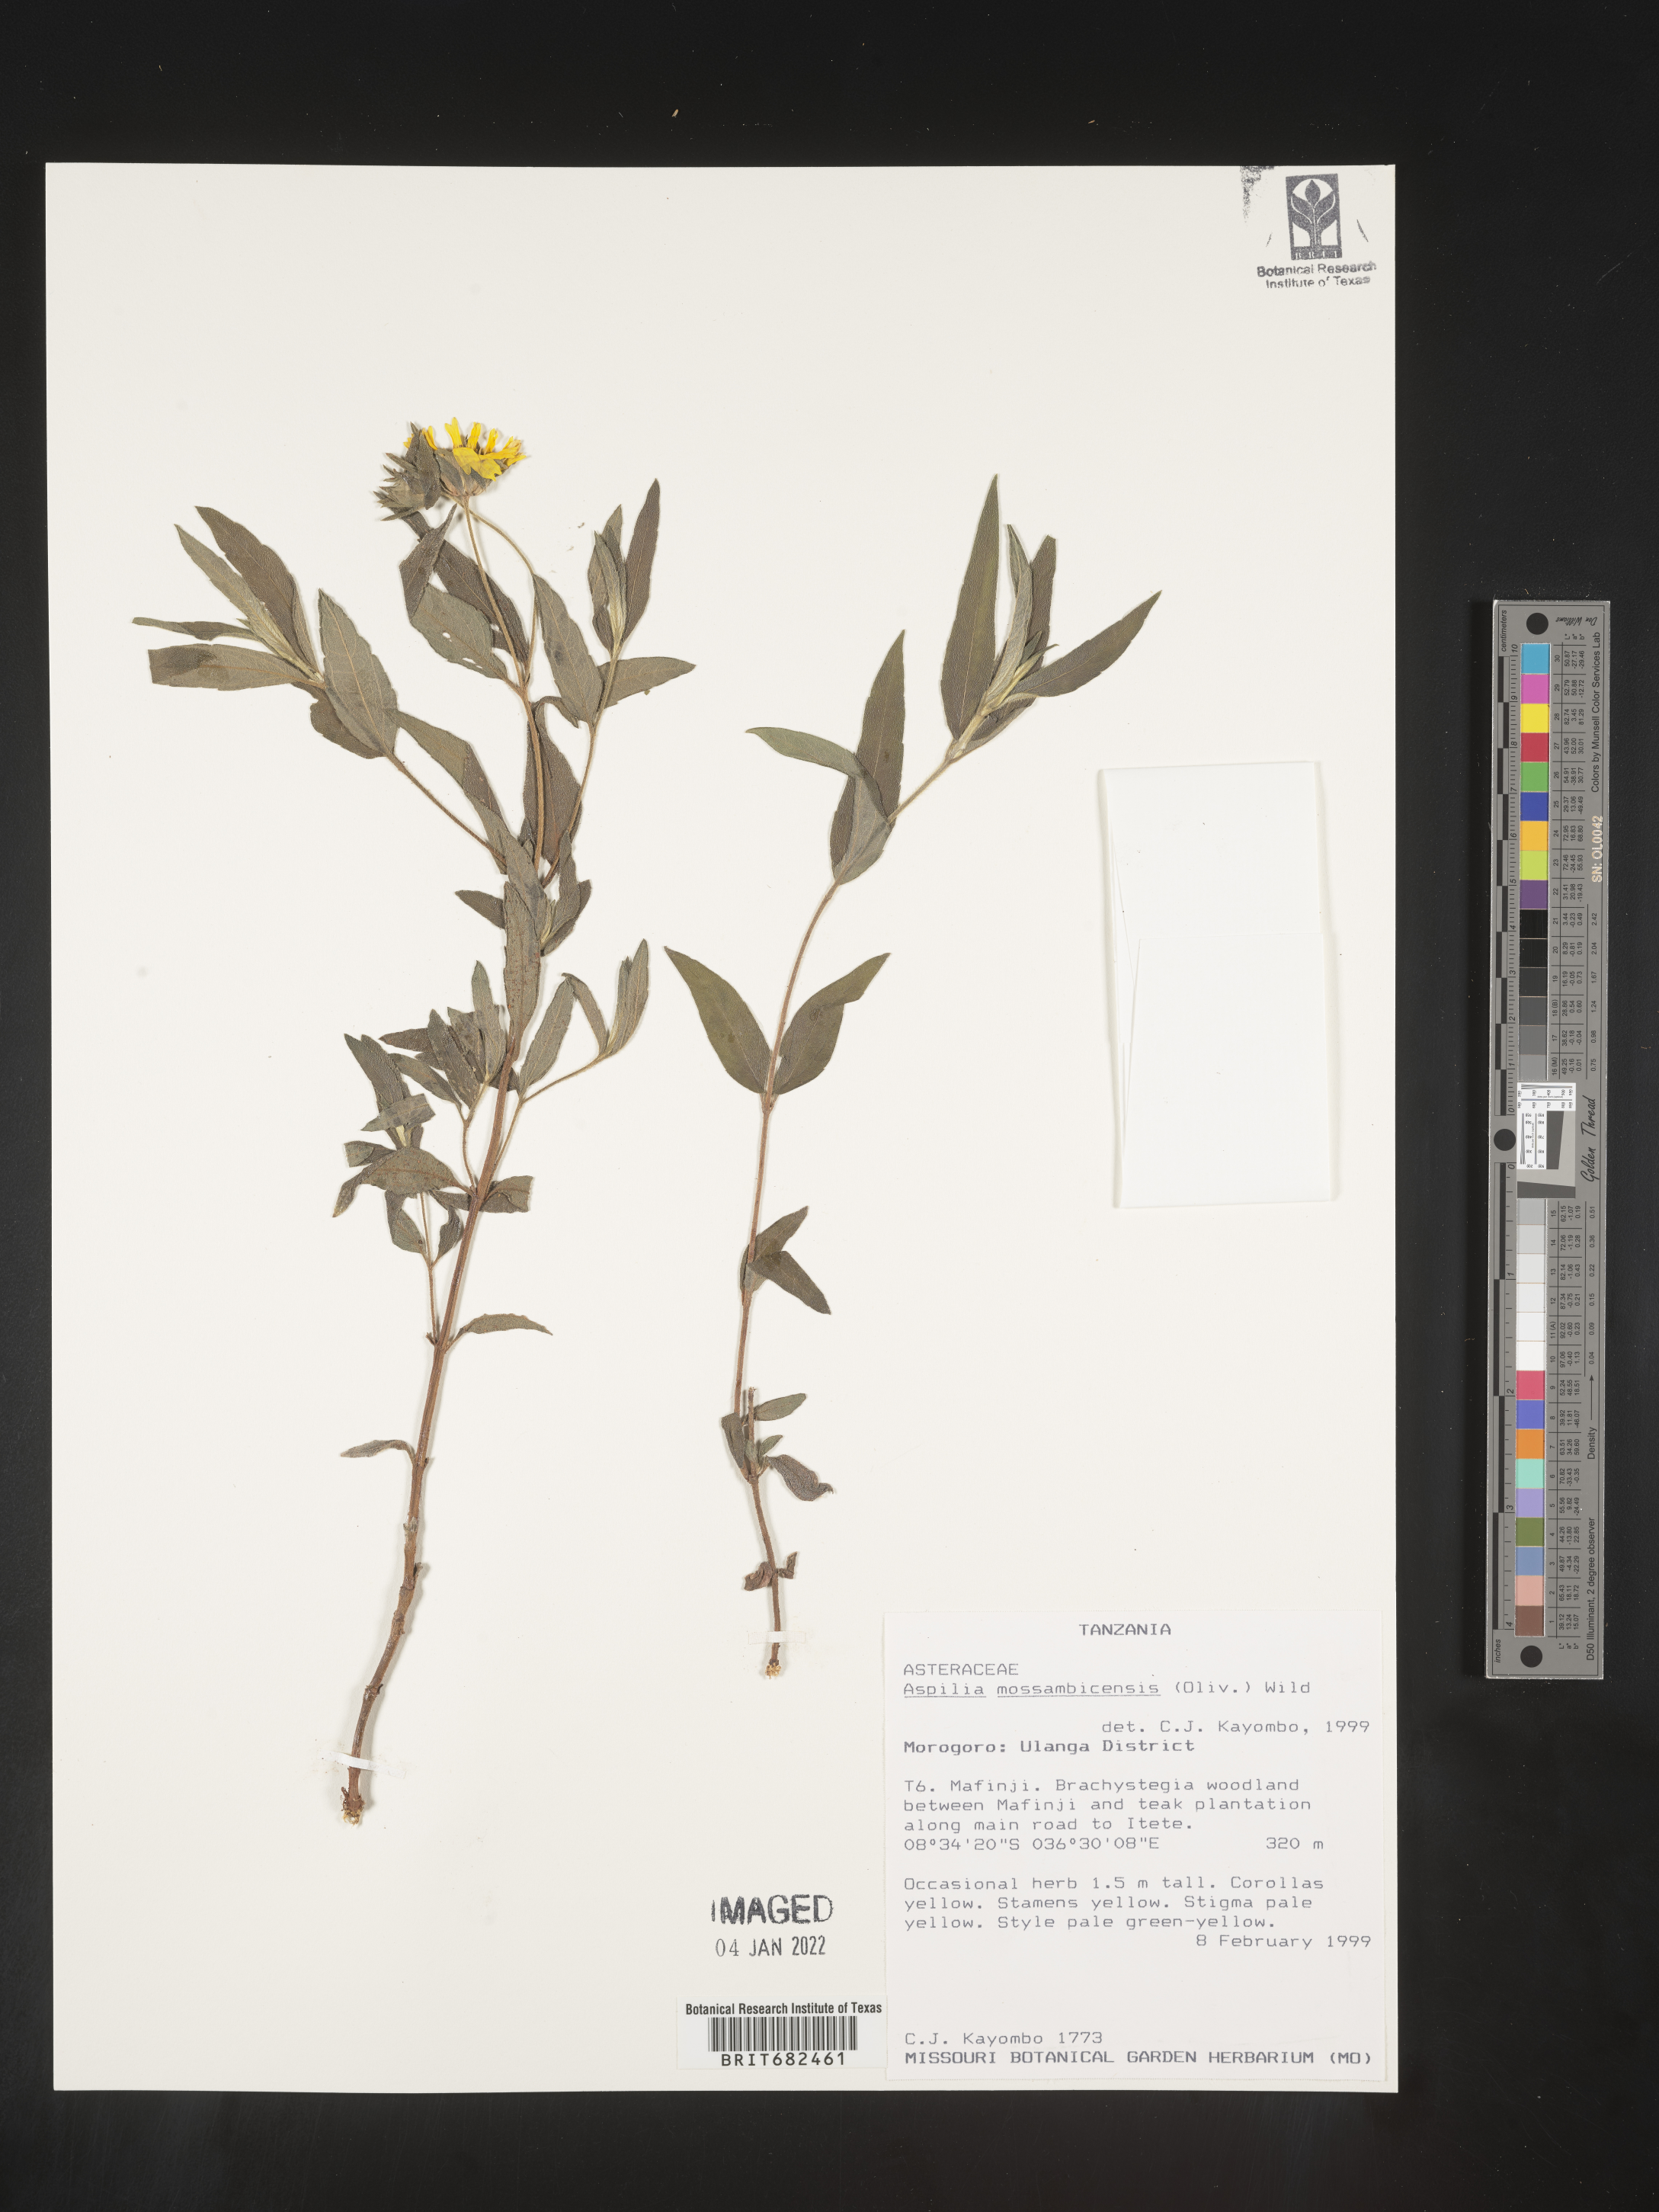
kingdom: Plantae
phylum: Tracheophyta
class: Magnoliopsida
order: Asterales
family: Asteraceae
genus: Aspilia
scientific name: Aspilia
